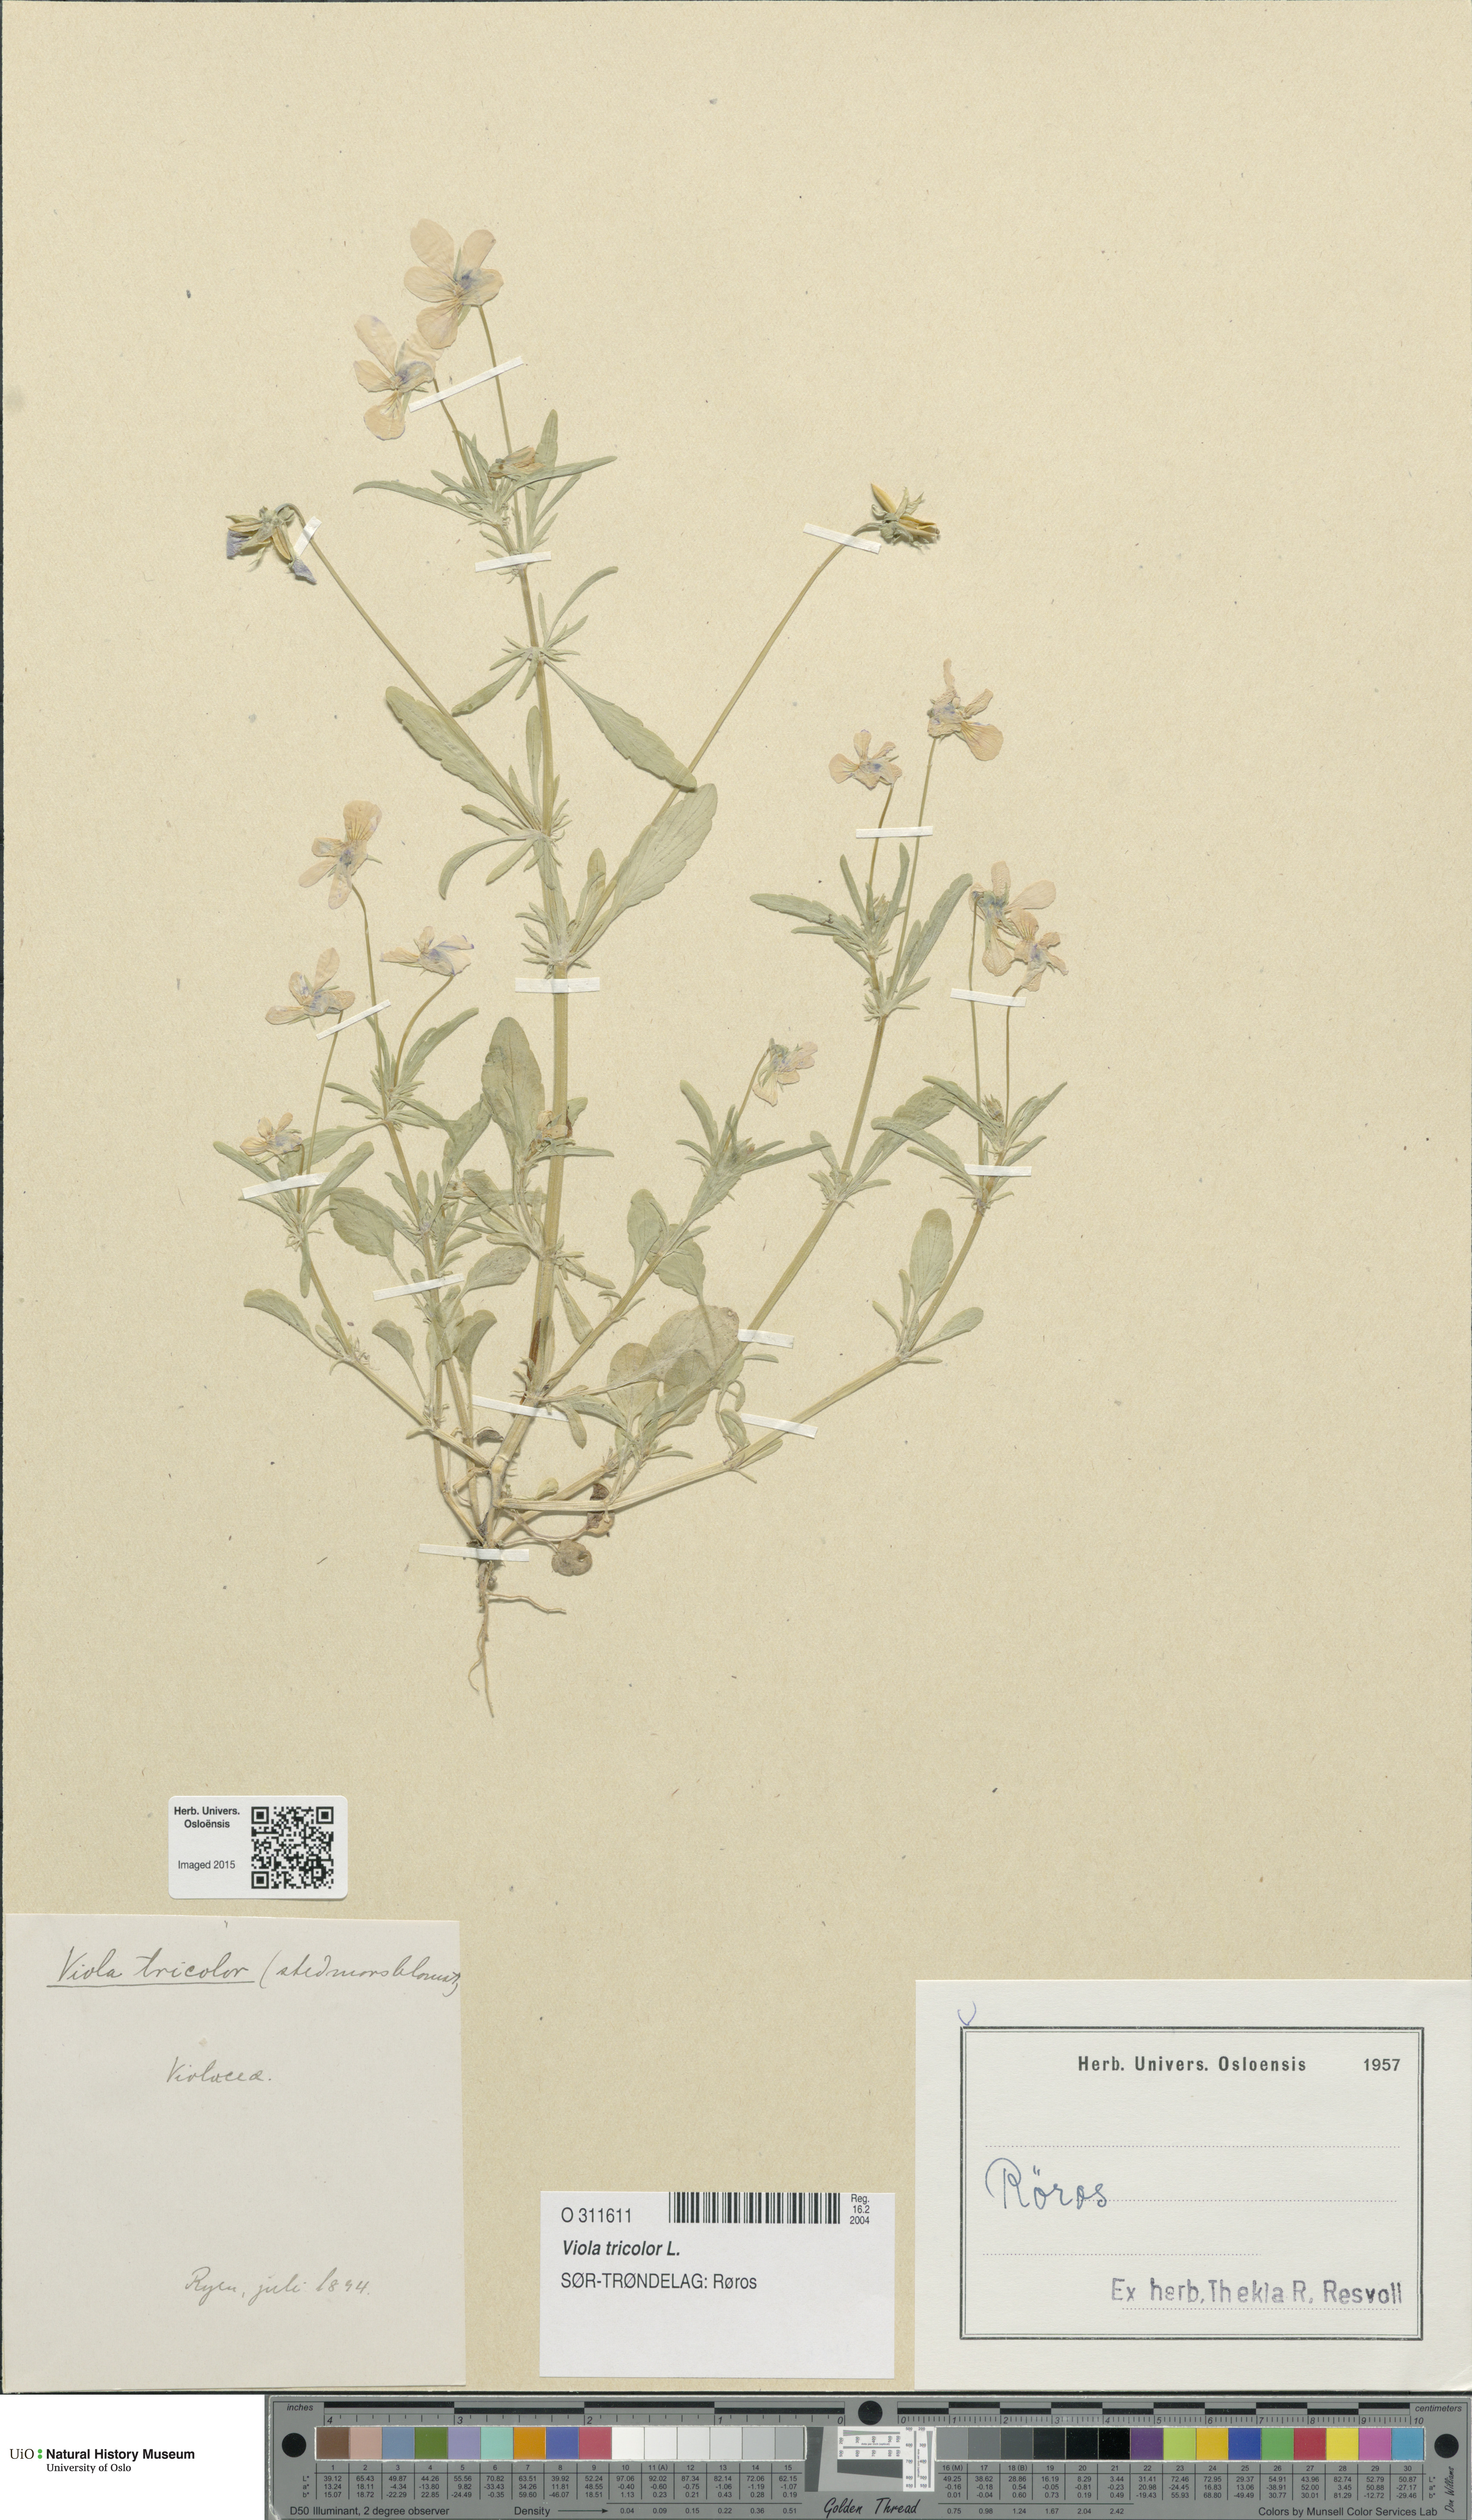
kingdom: Plantae
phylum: Tracheophyta
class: Magnoliopsida
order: Malpighiales
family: Violaceae
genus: Viola
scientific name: Viola tricolor
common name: Pansy
